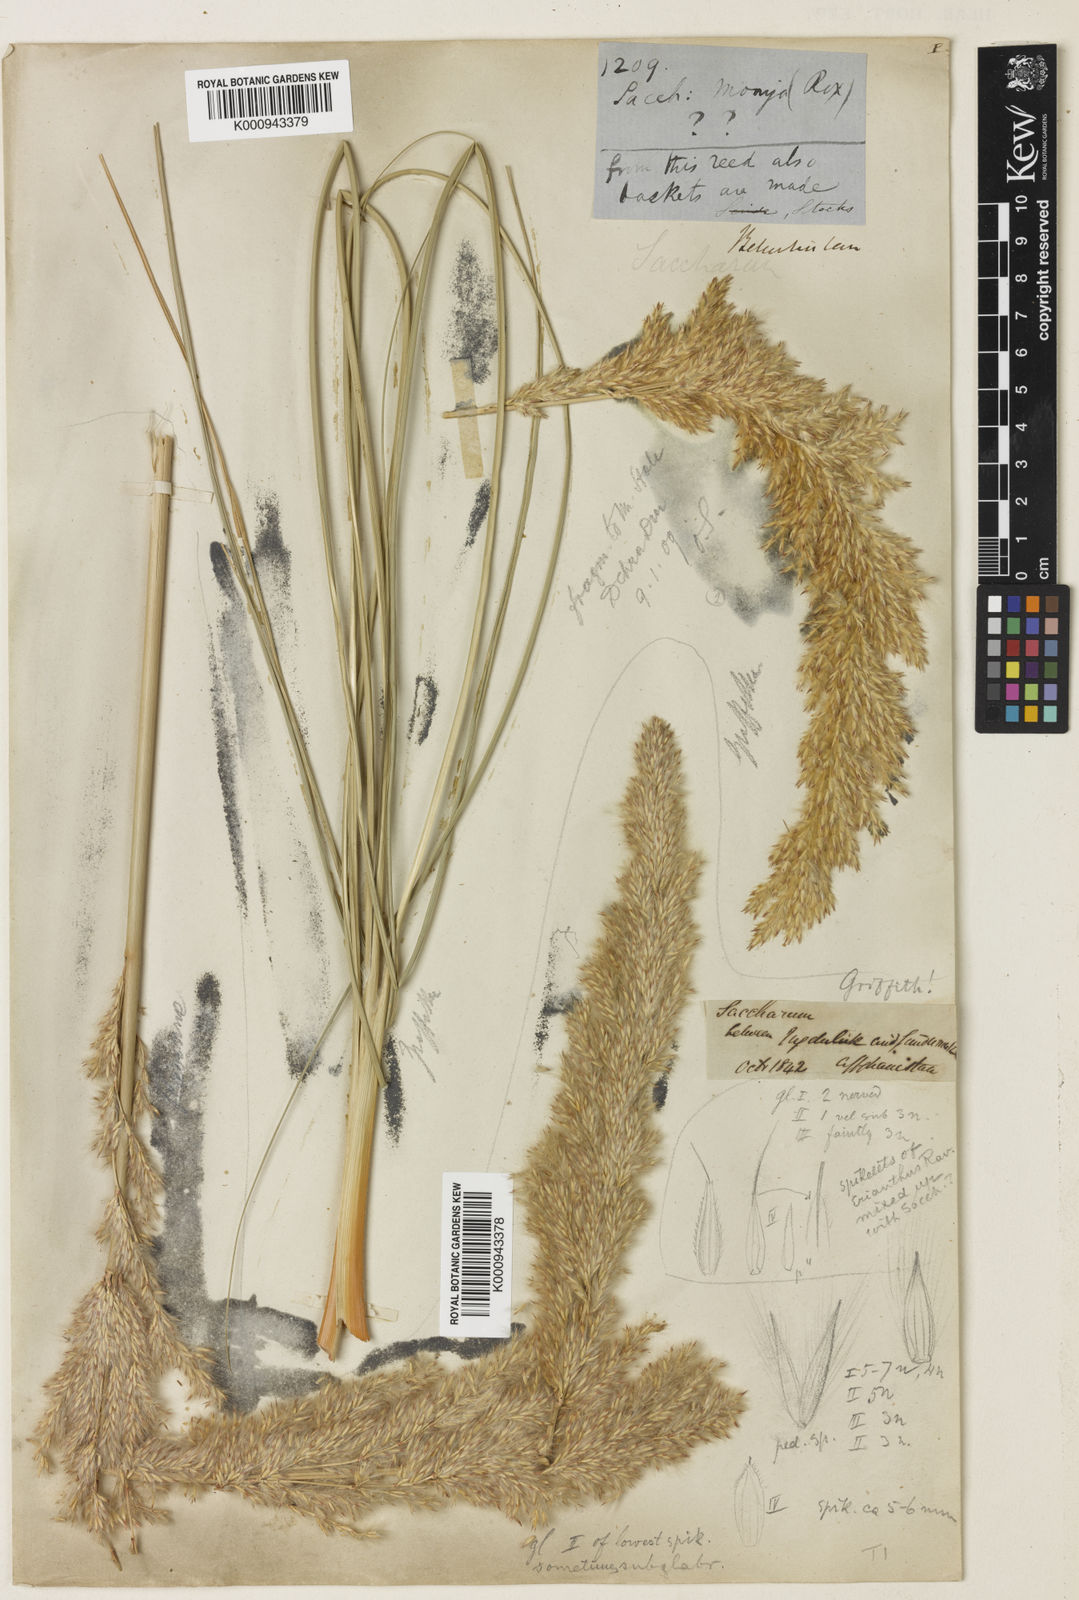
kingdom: Plantae
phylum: Tracheophyta
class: Liliopsida
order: Poales
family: Poaceae
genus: Saccharum
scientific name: Saccharum griffithii
